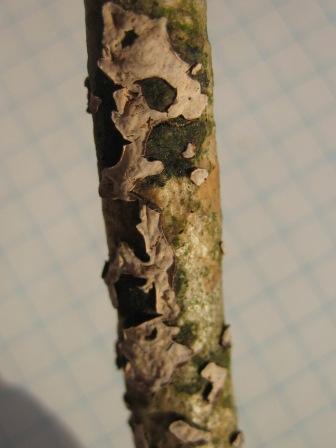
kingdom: Fungi
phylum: Basidiomycota
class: Agaricomycetes
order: Russulales
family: Peniophoraceae
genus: Peniophora
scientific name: Peniophora quercina
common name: ege-voksskind
